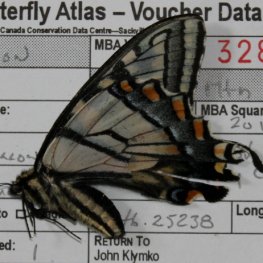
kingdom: Animalia
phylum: Arthropoda
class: Insecta
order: Lepidoptera
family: Papilionidae
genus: Pterourus
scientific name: Pterourus canadensis
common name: Canadian Tiger Swallowtail
